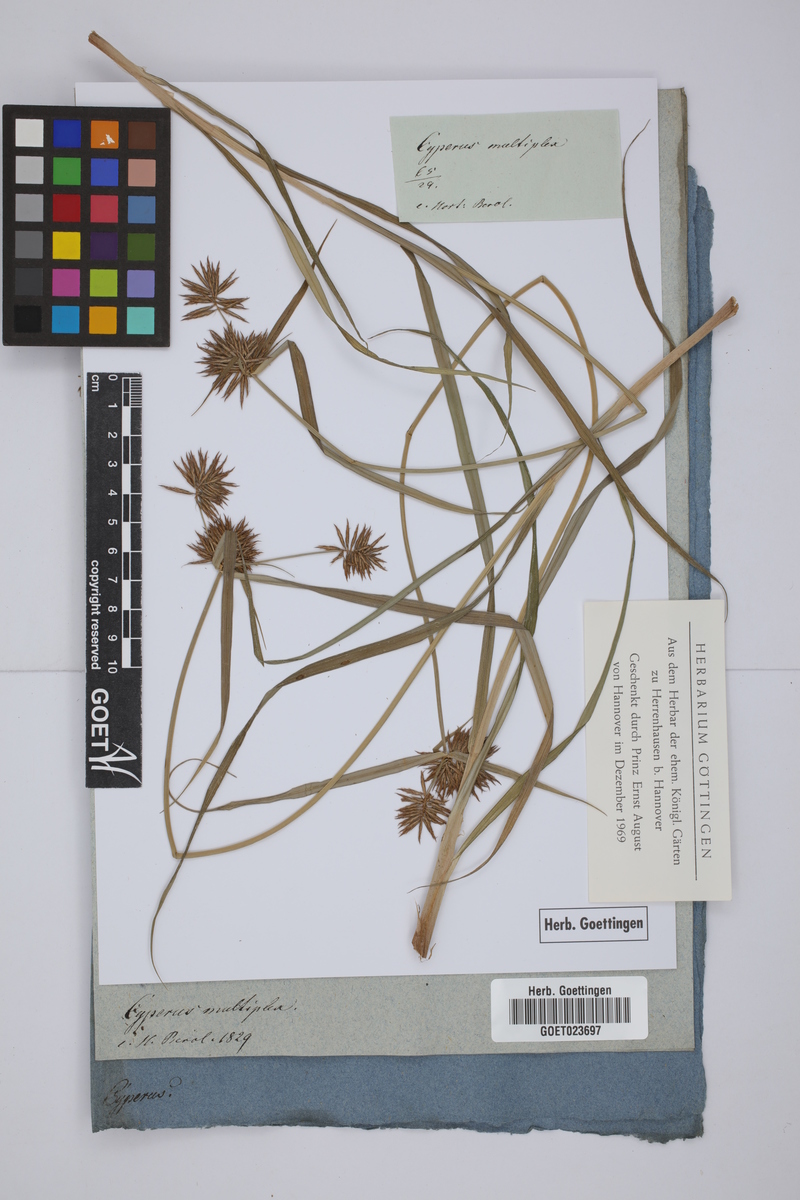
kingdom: Plantae
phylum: Tracheophyta
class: Liliopsida
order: Poales
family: Cyperaceae
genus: Cyperus
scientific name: Cyperus
